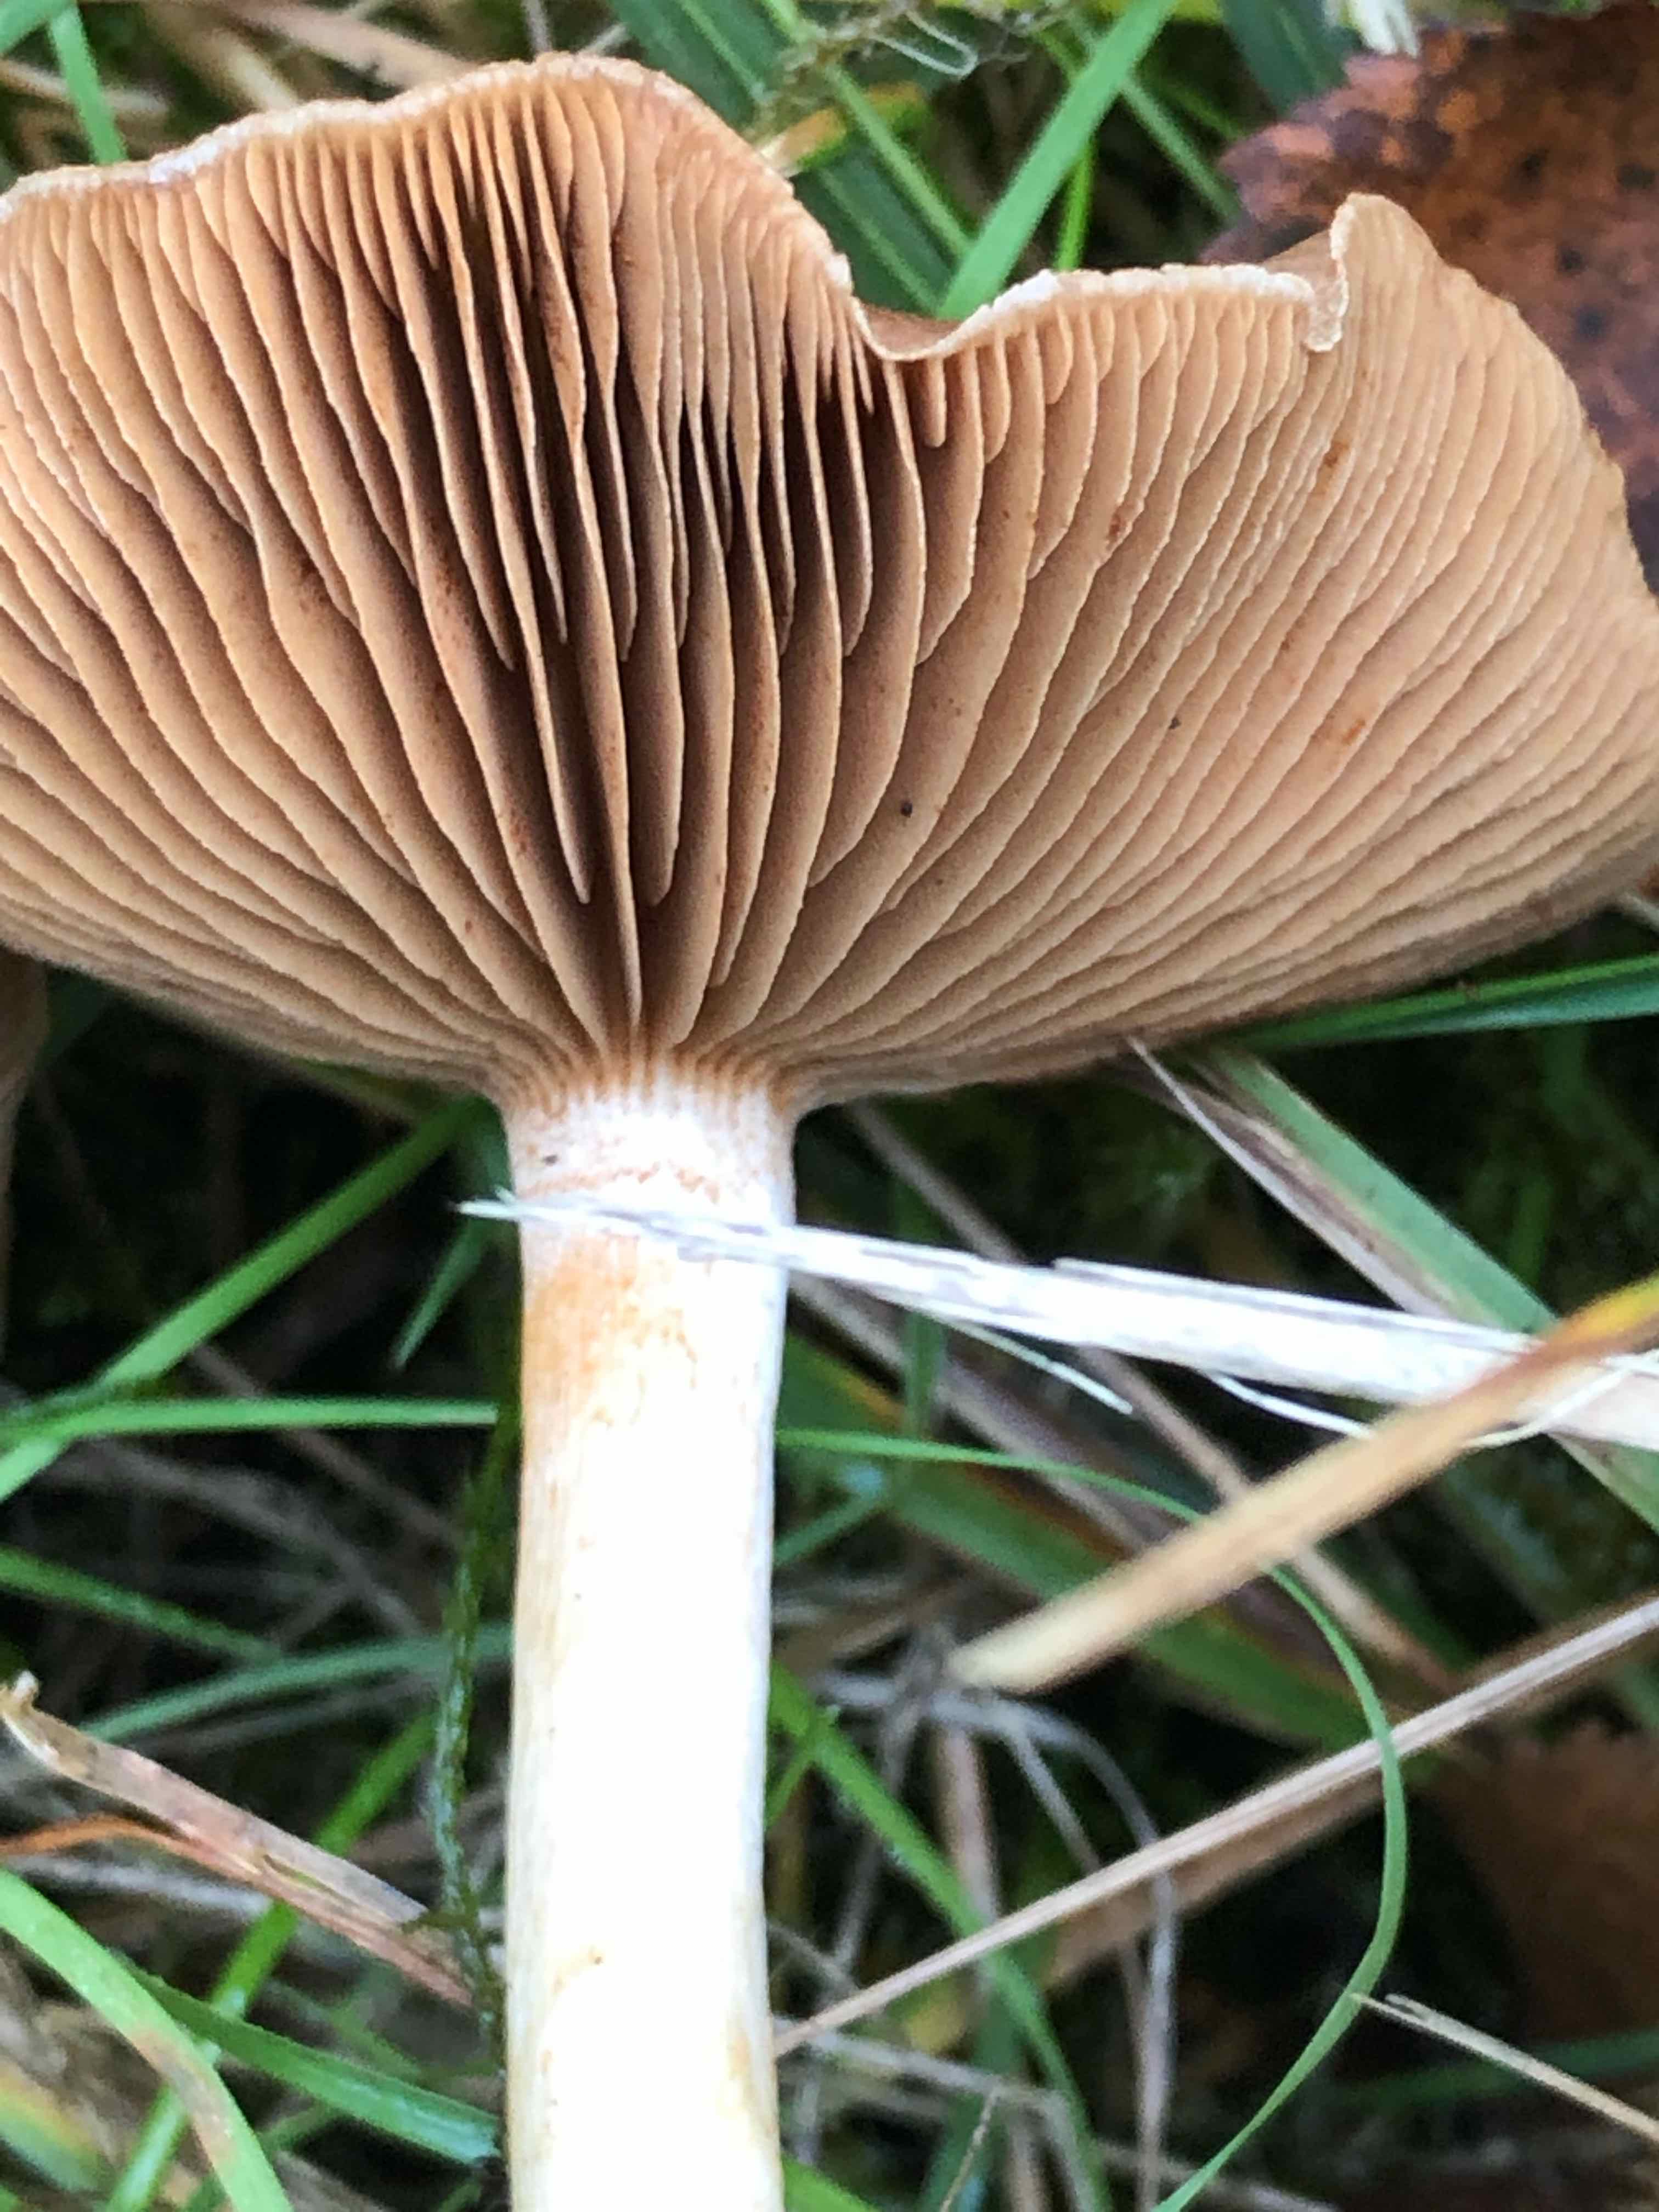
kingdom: Fungi
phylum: Basidiomycota
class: Agaricomycetes
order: Agaricales
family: Cortinariaceae
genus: Cortinarius
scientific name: Cortinarius
